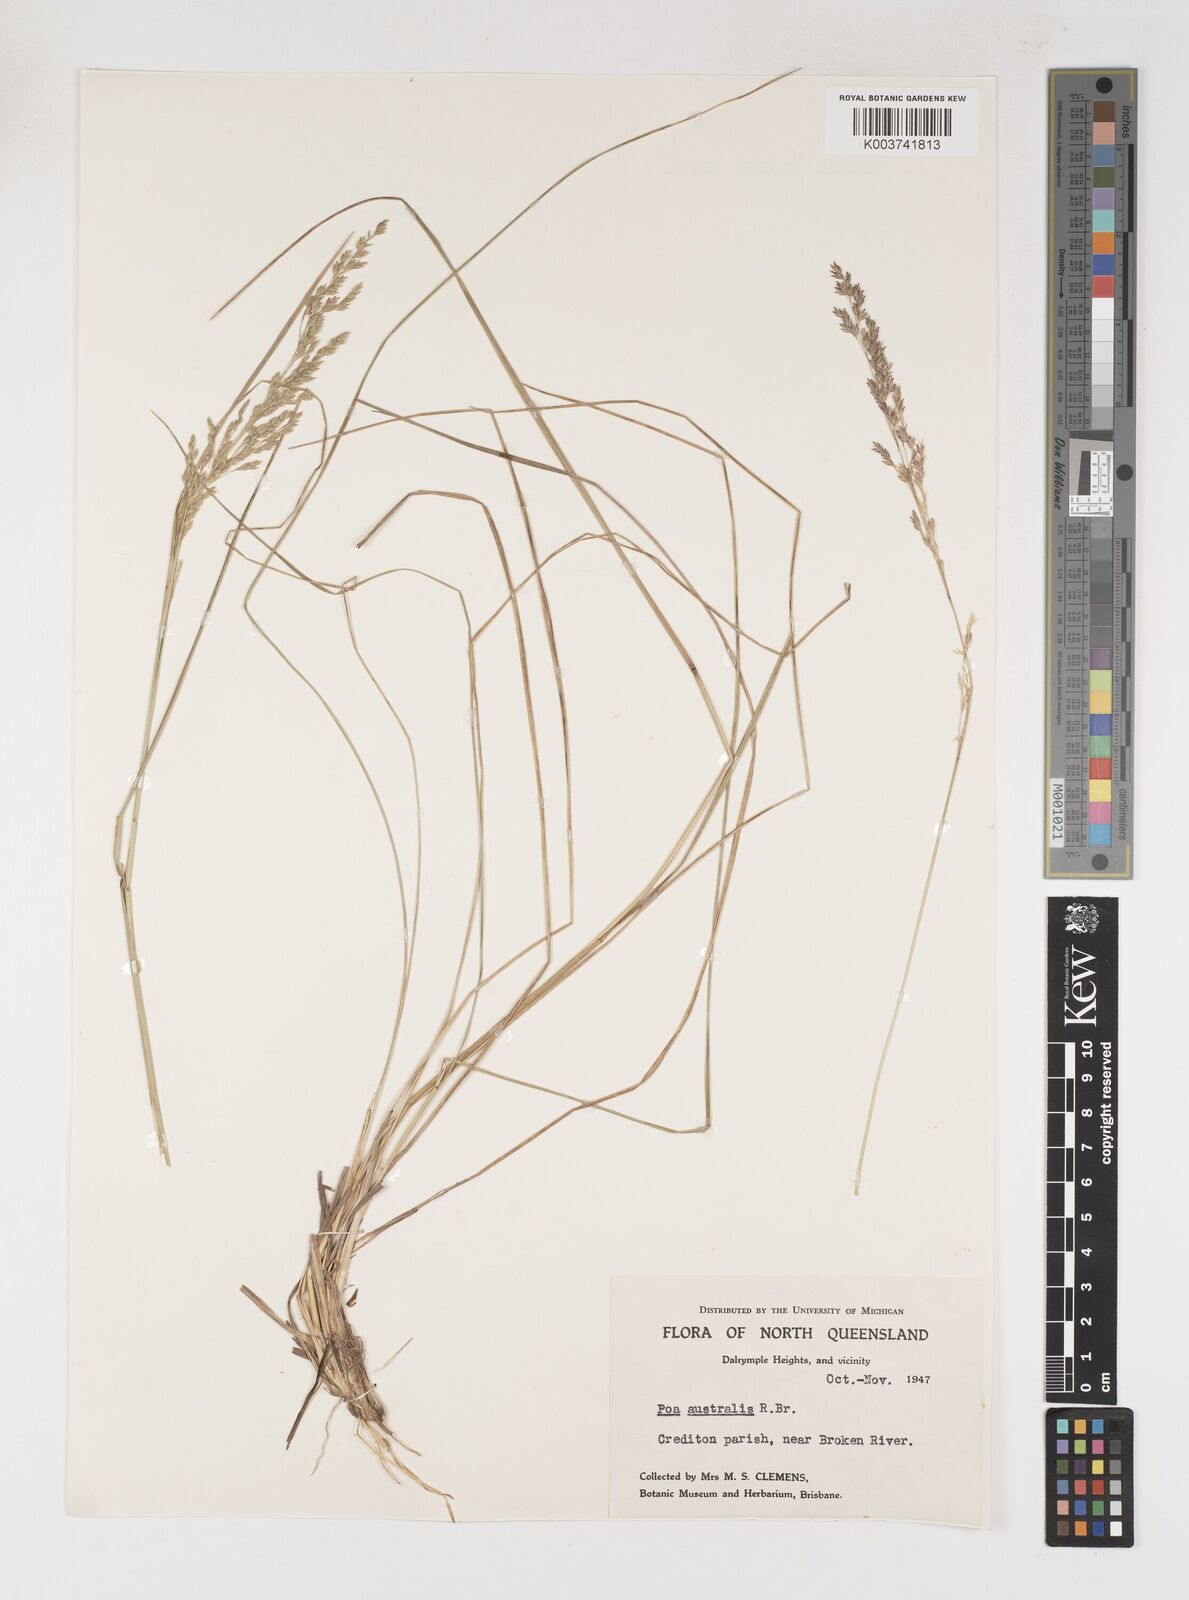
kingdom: Plantae
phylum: Tracheophyta
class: Liliopsida
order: Poales
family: Poaceae
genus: Poa
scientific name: Poa sieberiana
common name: Tussock poa
